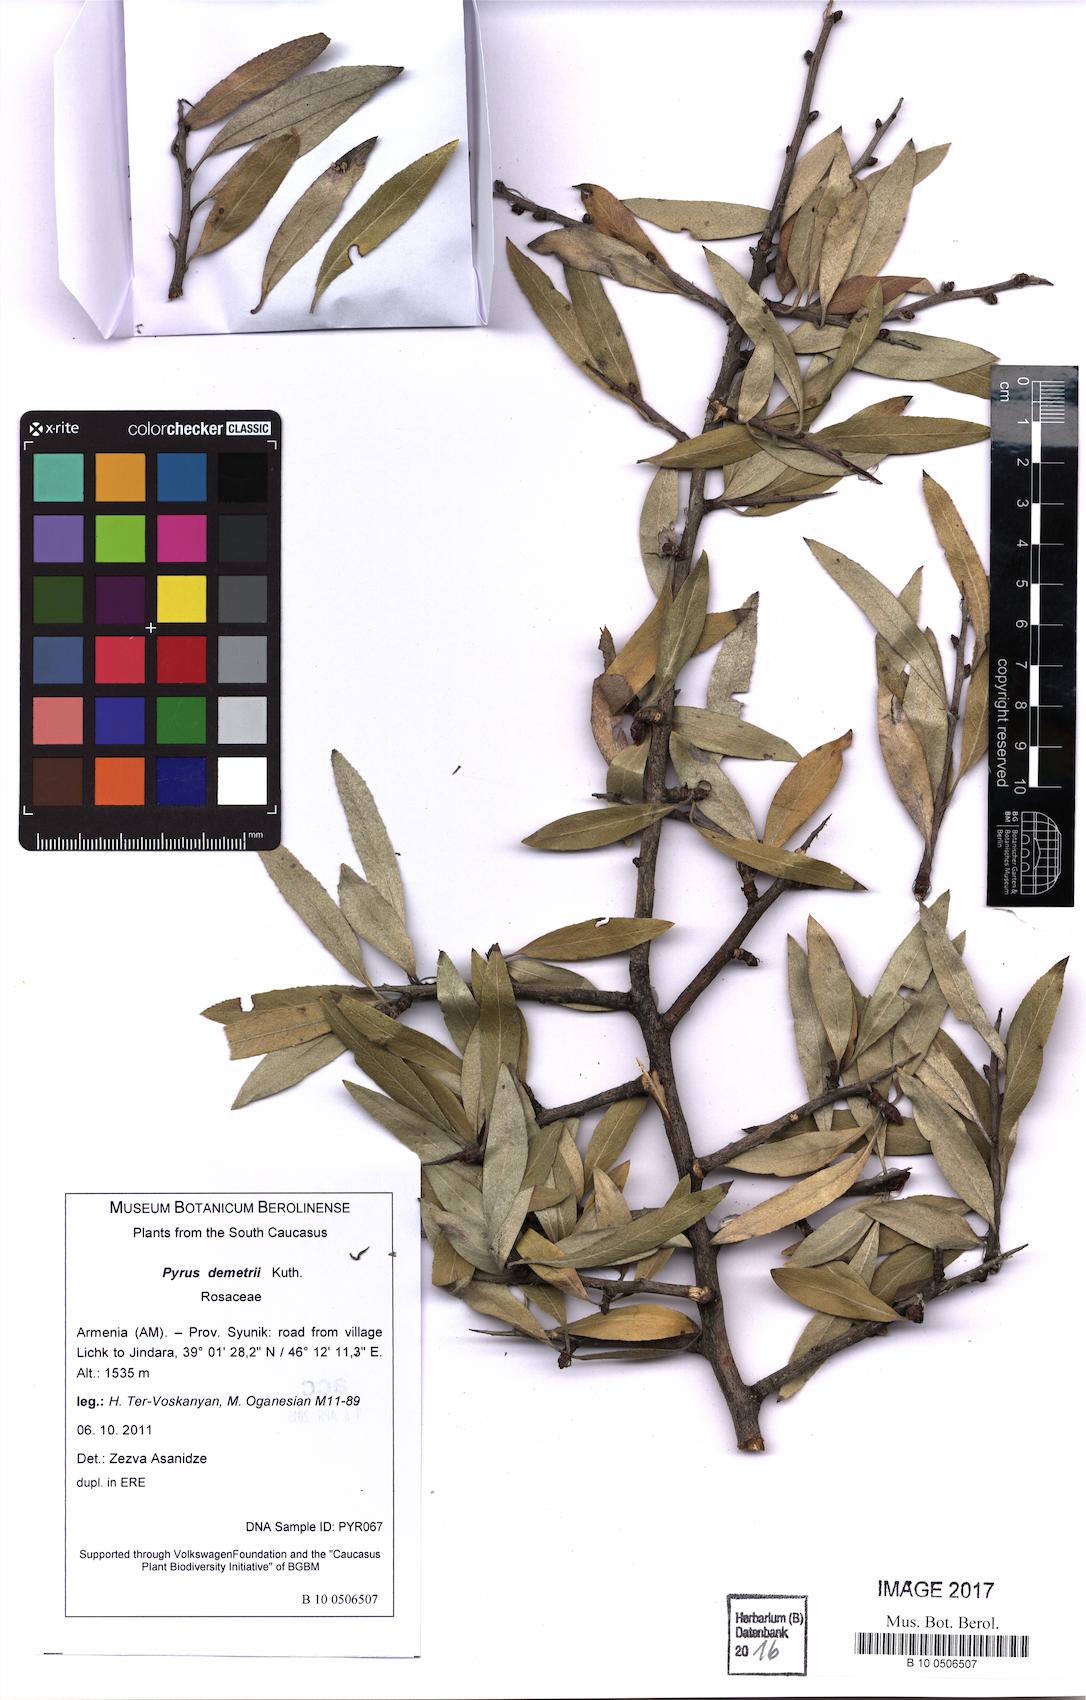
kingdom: Plantae
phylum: Tracheophyta
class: Magnoliopsida
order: Rosales
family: Rosaceae
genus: Pyrus
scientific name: Pyrus demetrii
